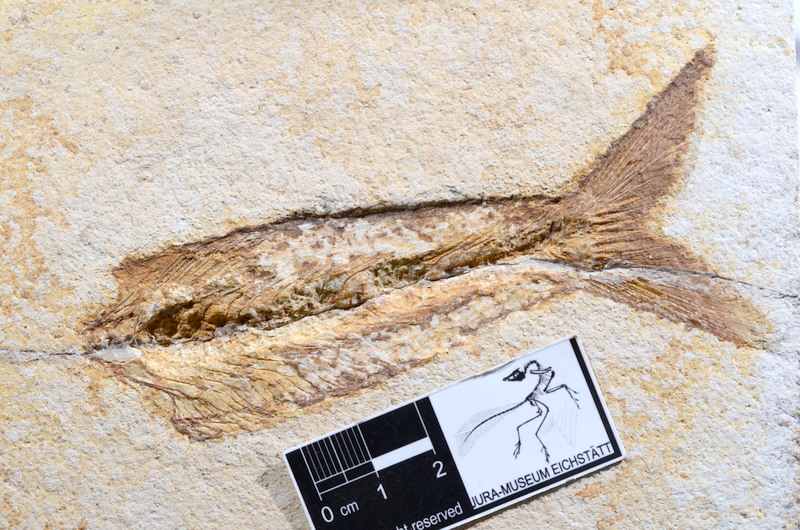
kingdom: Animalia
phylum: Chordata
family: Allothrissopidae
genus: Allothrissops
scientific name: Allothrissops
